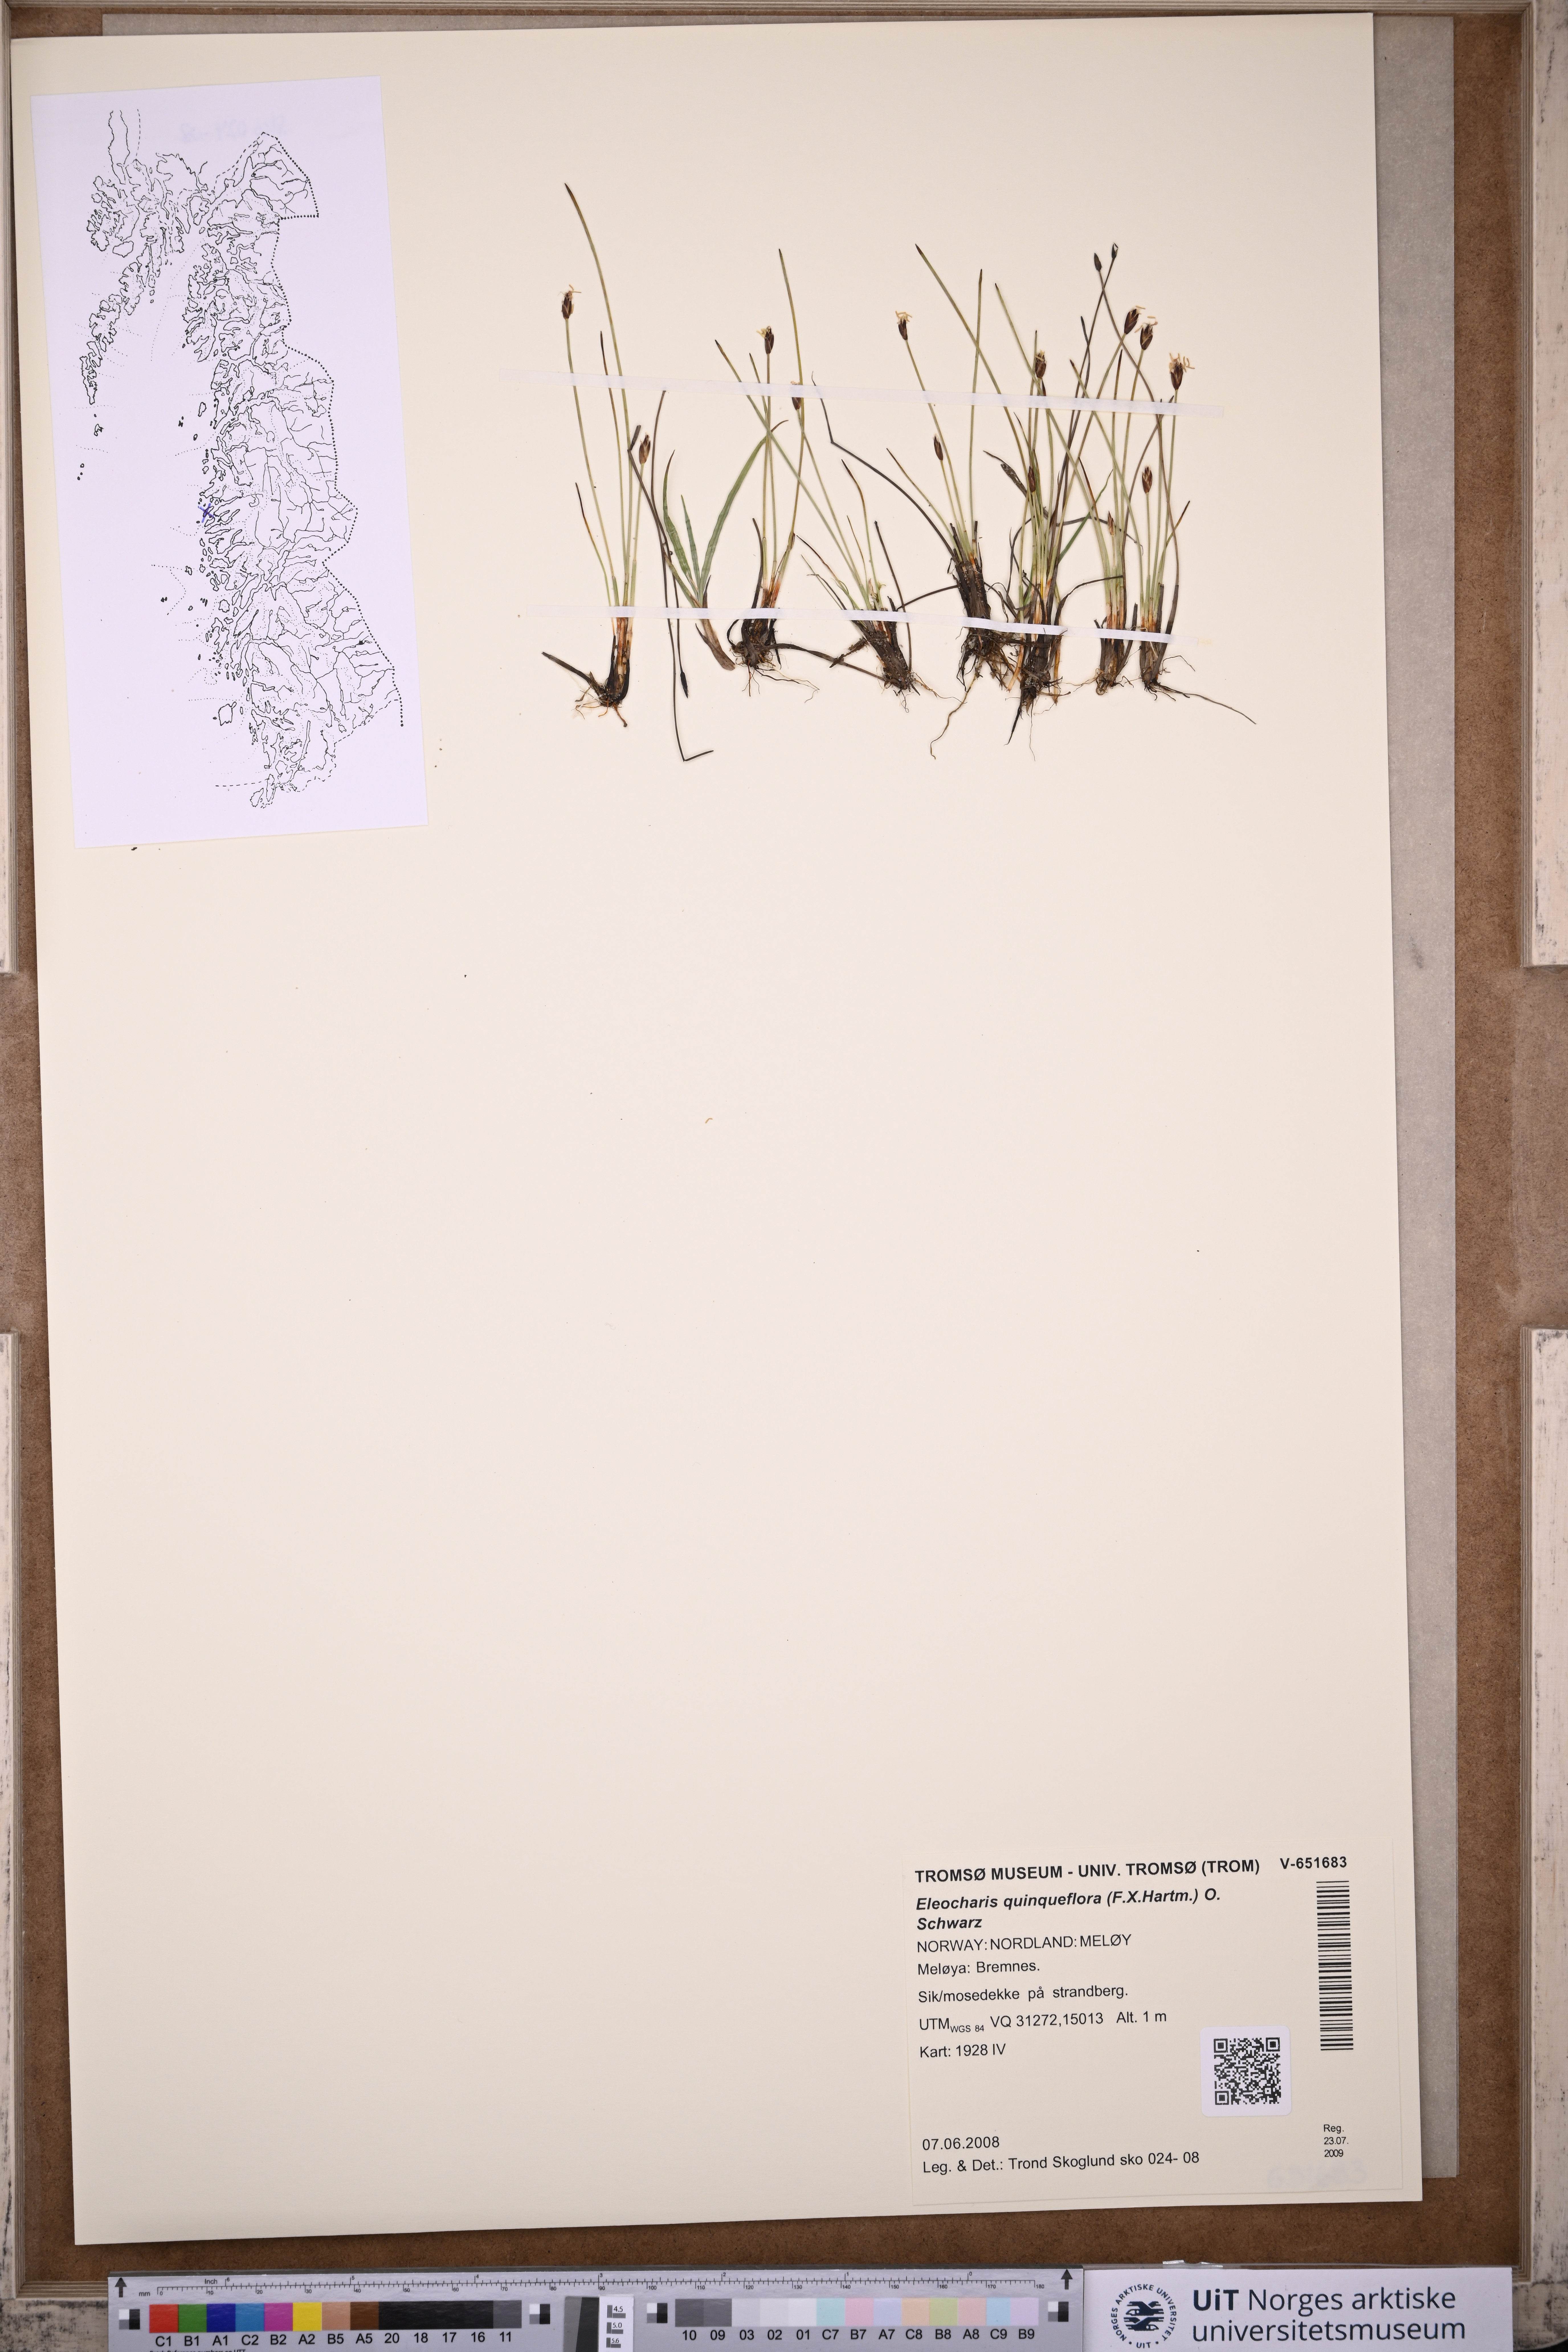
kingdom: Plantae
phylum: Tracheophyta
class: Liliopsida
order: Poales
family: Cyperaceae
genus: Eleocharis
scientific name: Eleocharis quinqueflora
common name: Few-flowered spike-rush
